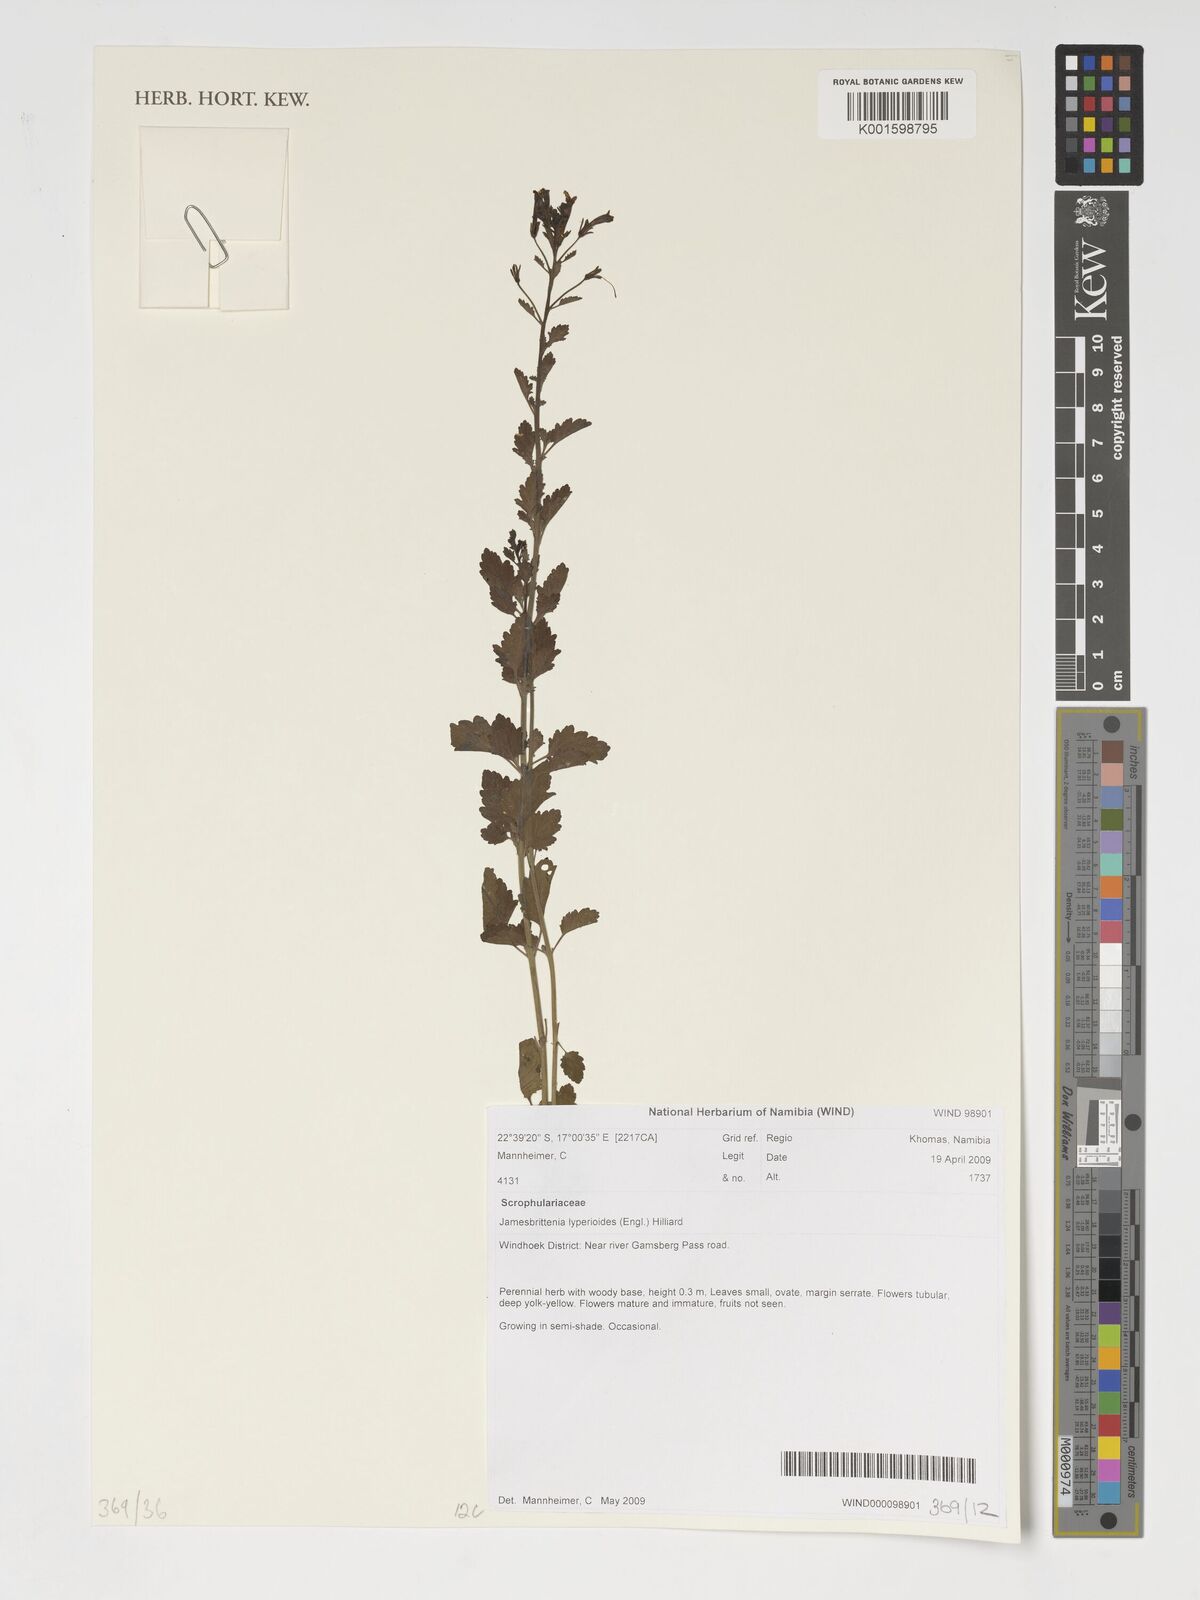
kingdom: Plantae
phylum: Tracheophyta
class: Magnoliopsida
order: Lamiales
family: Scrophulariaceae
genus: Jamesbrittenia
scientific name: Jamesbrittenia lyperioides
